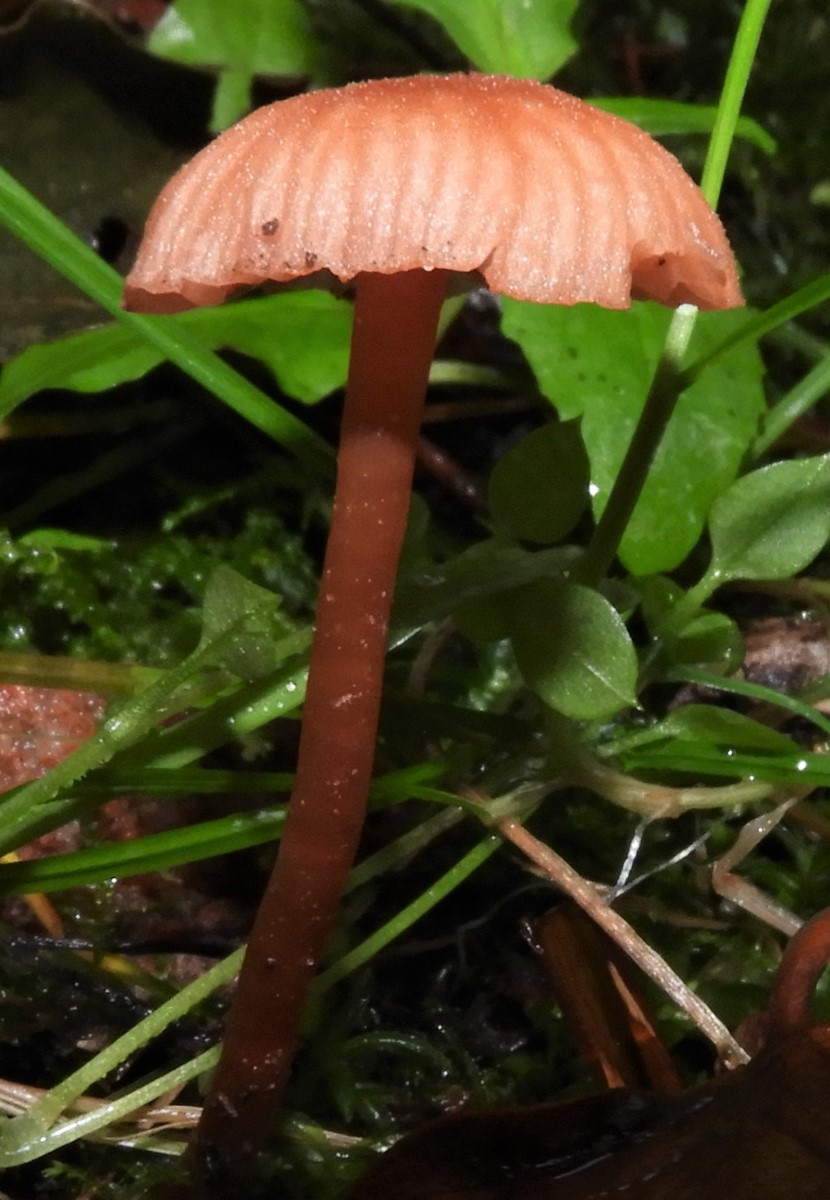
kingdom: Fungi
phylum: Basidiomycota
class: Agaricomycetes
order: Agaricales
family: Cortinariaceae
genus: Cortinarius
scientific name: Cortinarius
